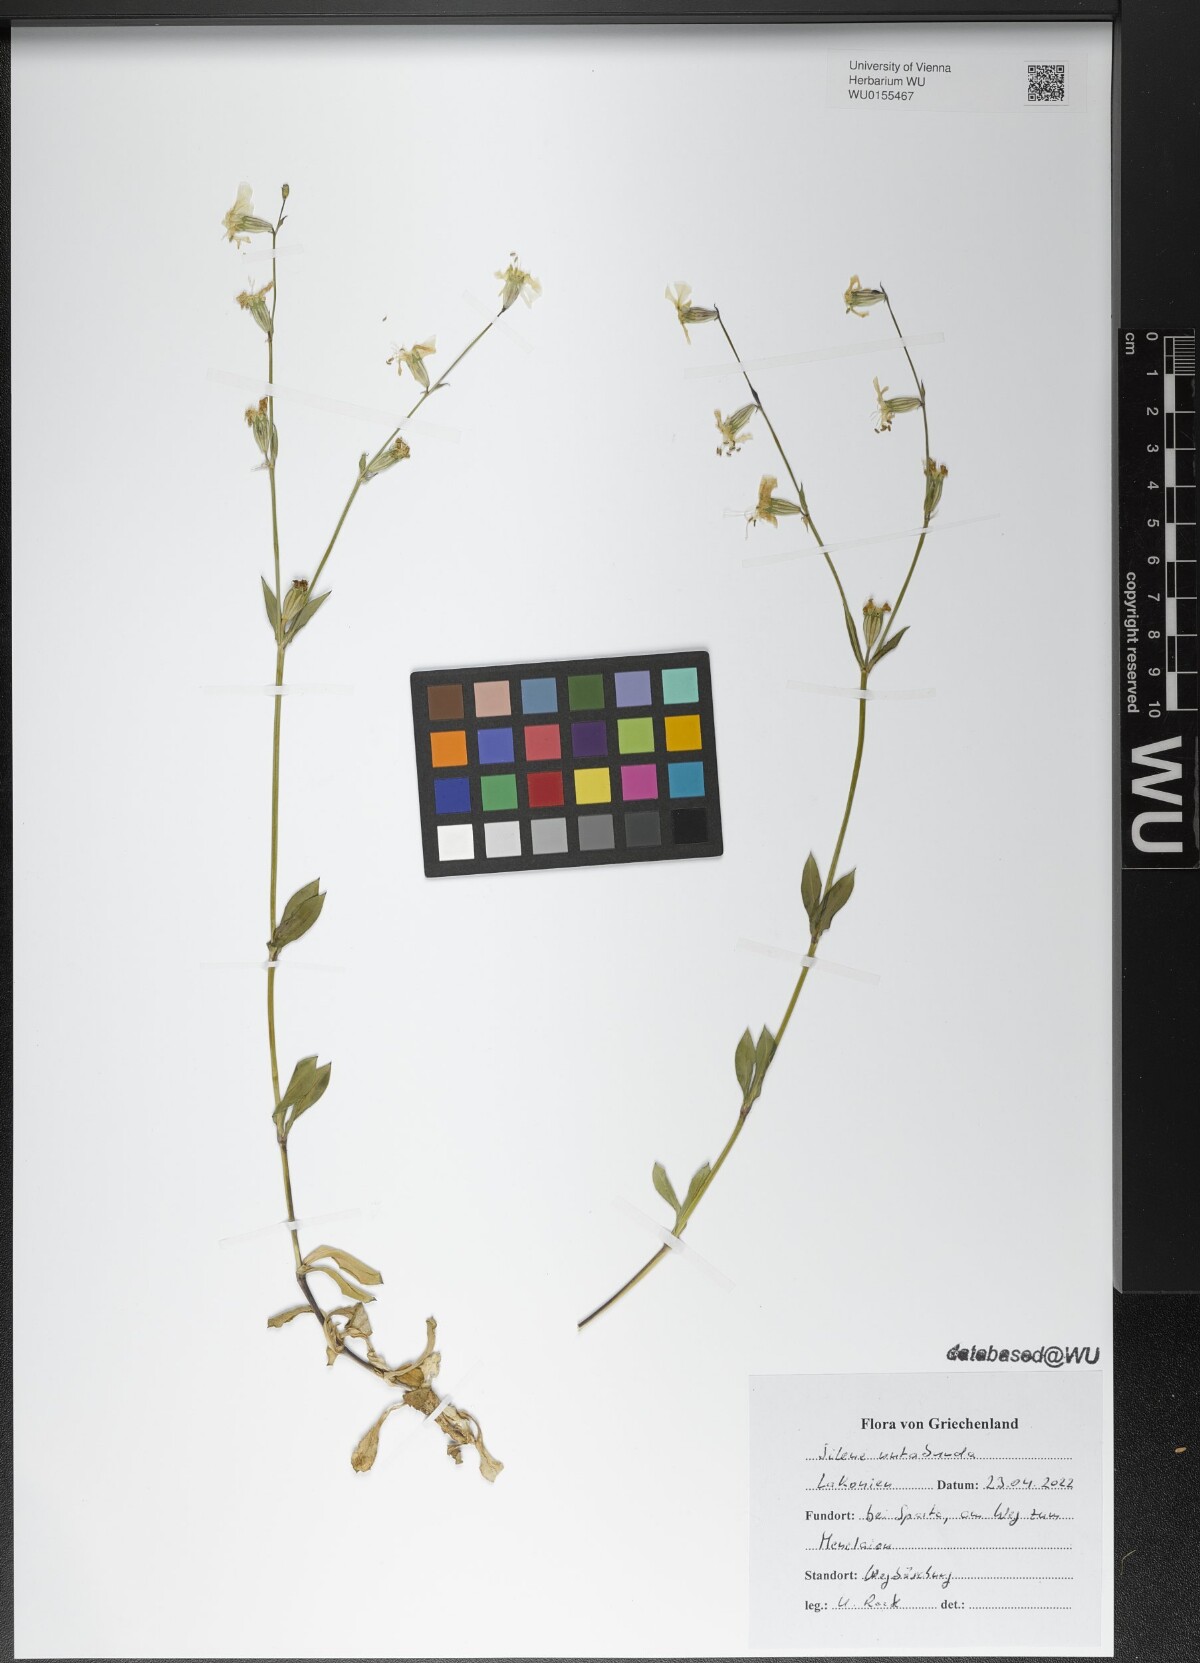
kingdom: Plantae
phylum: Tracheophyta
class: Magnoliopsida
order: Caryophyllales
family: Caryophyllaceae
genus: Silene
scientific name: Silene nutabunda
